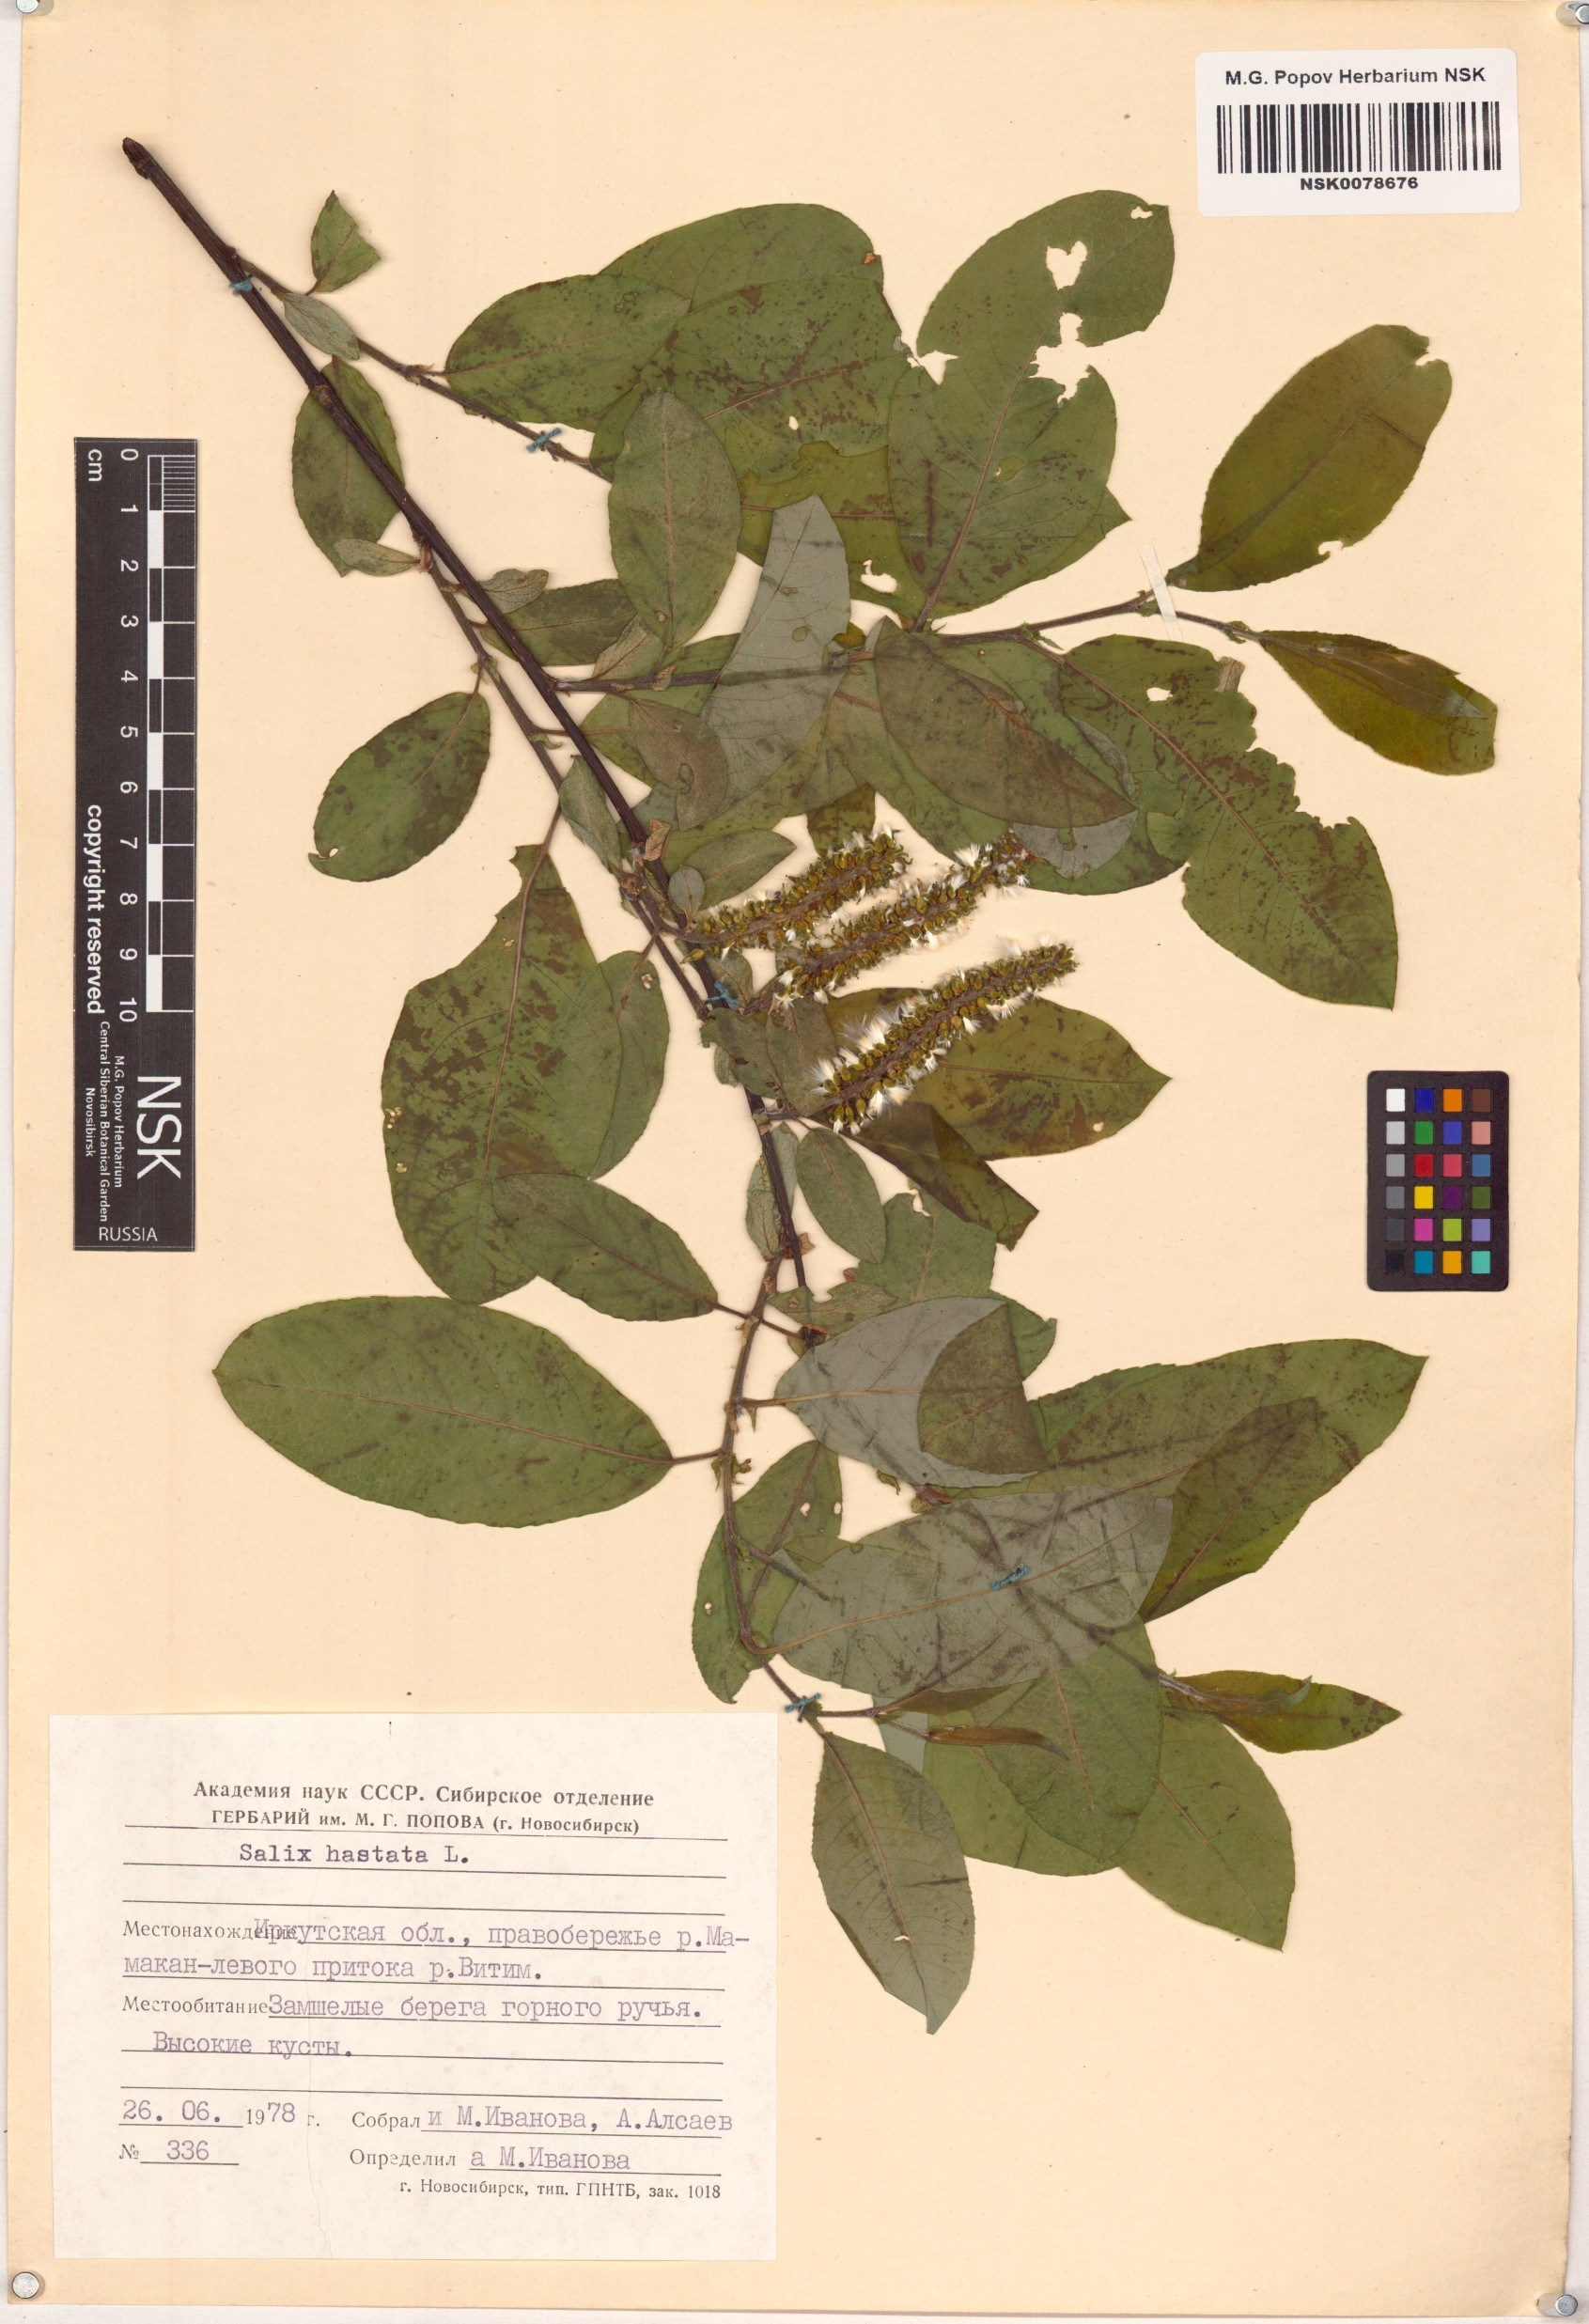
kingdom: Plantae
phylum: Tracheophyta
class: Magnoliopsida
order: Malpighiales
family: Salicaceae
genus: Salix
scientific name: Salix hastata
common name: Halberd willow
